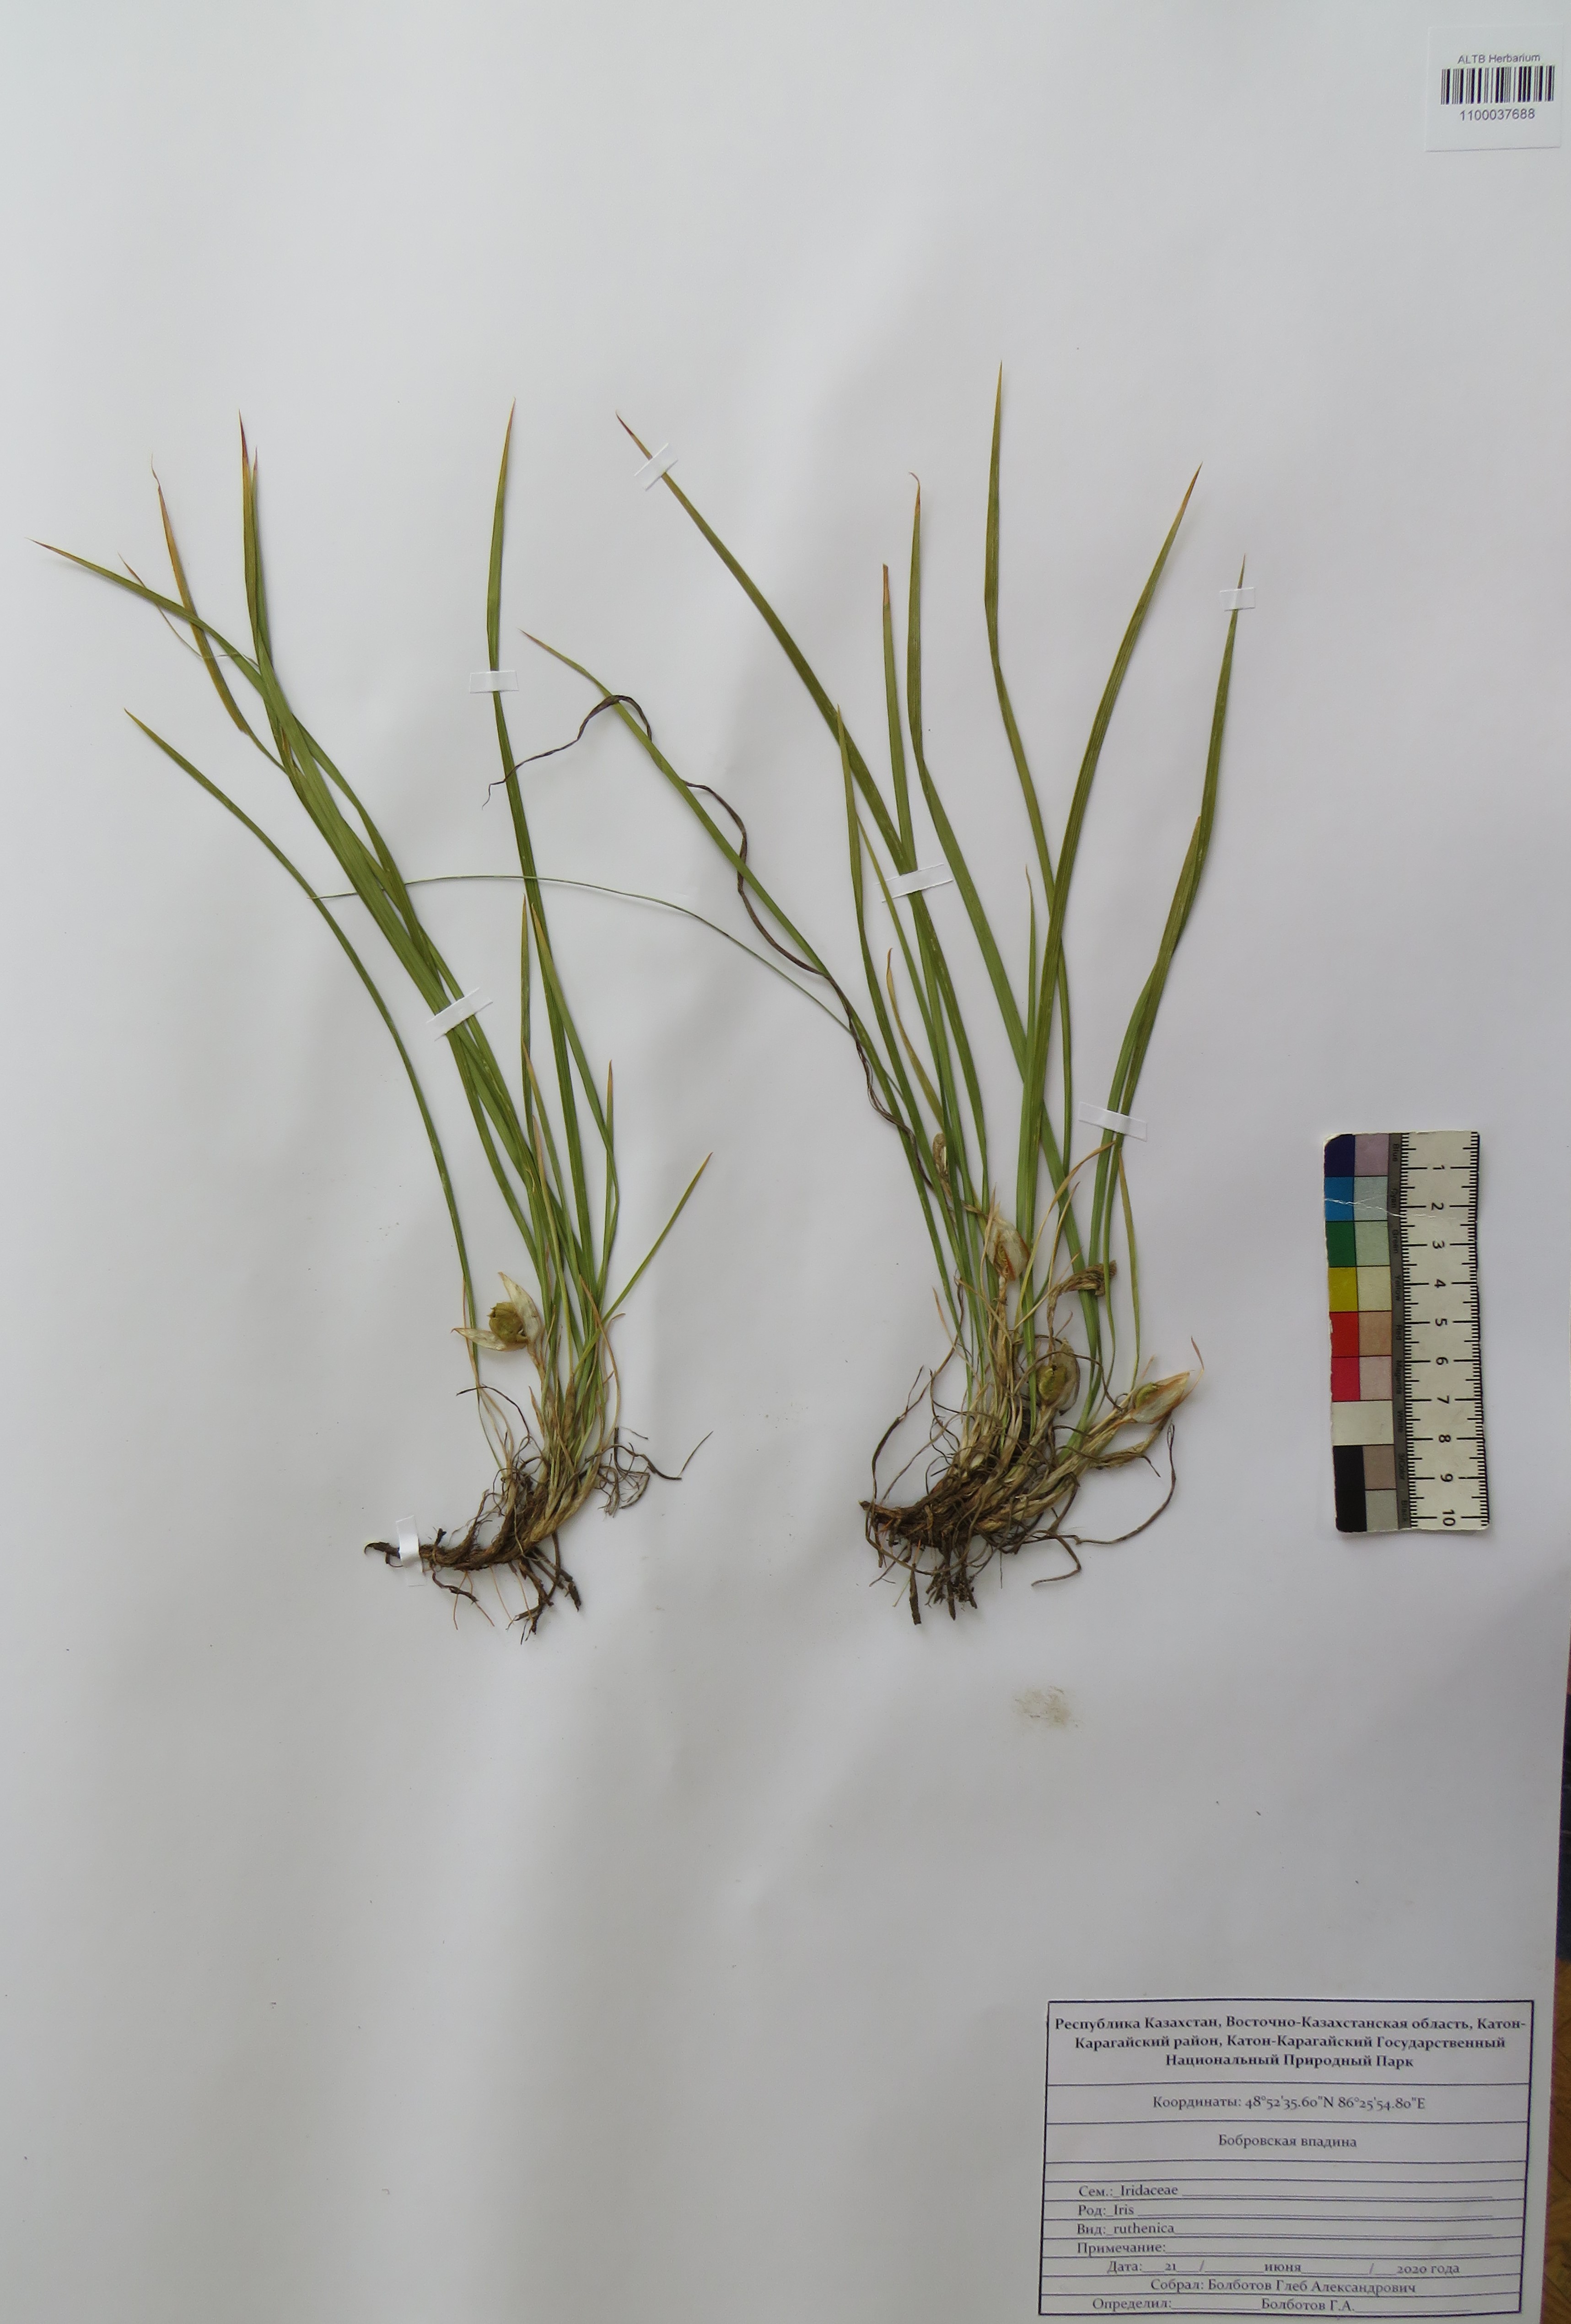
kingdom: Plantae
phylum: Tracheophyta
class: Liliopsida
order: Asparagales
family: Iridaceae
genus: Iris
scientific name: Iris ruthenica
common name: Purple-bract iris
